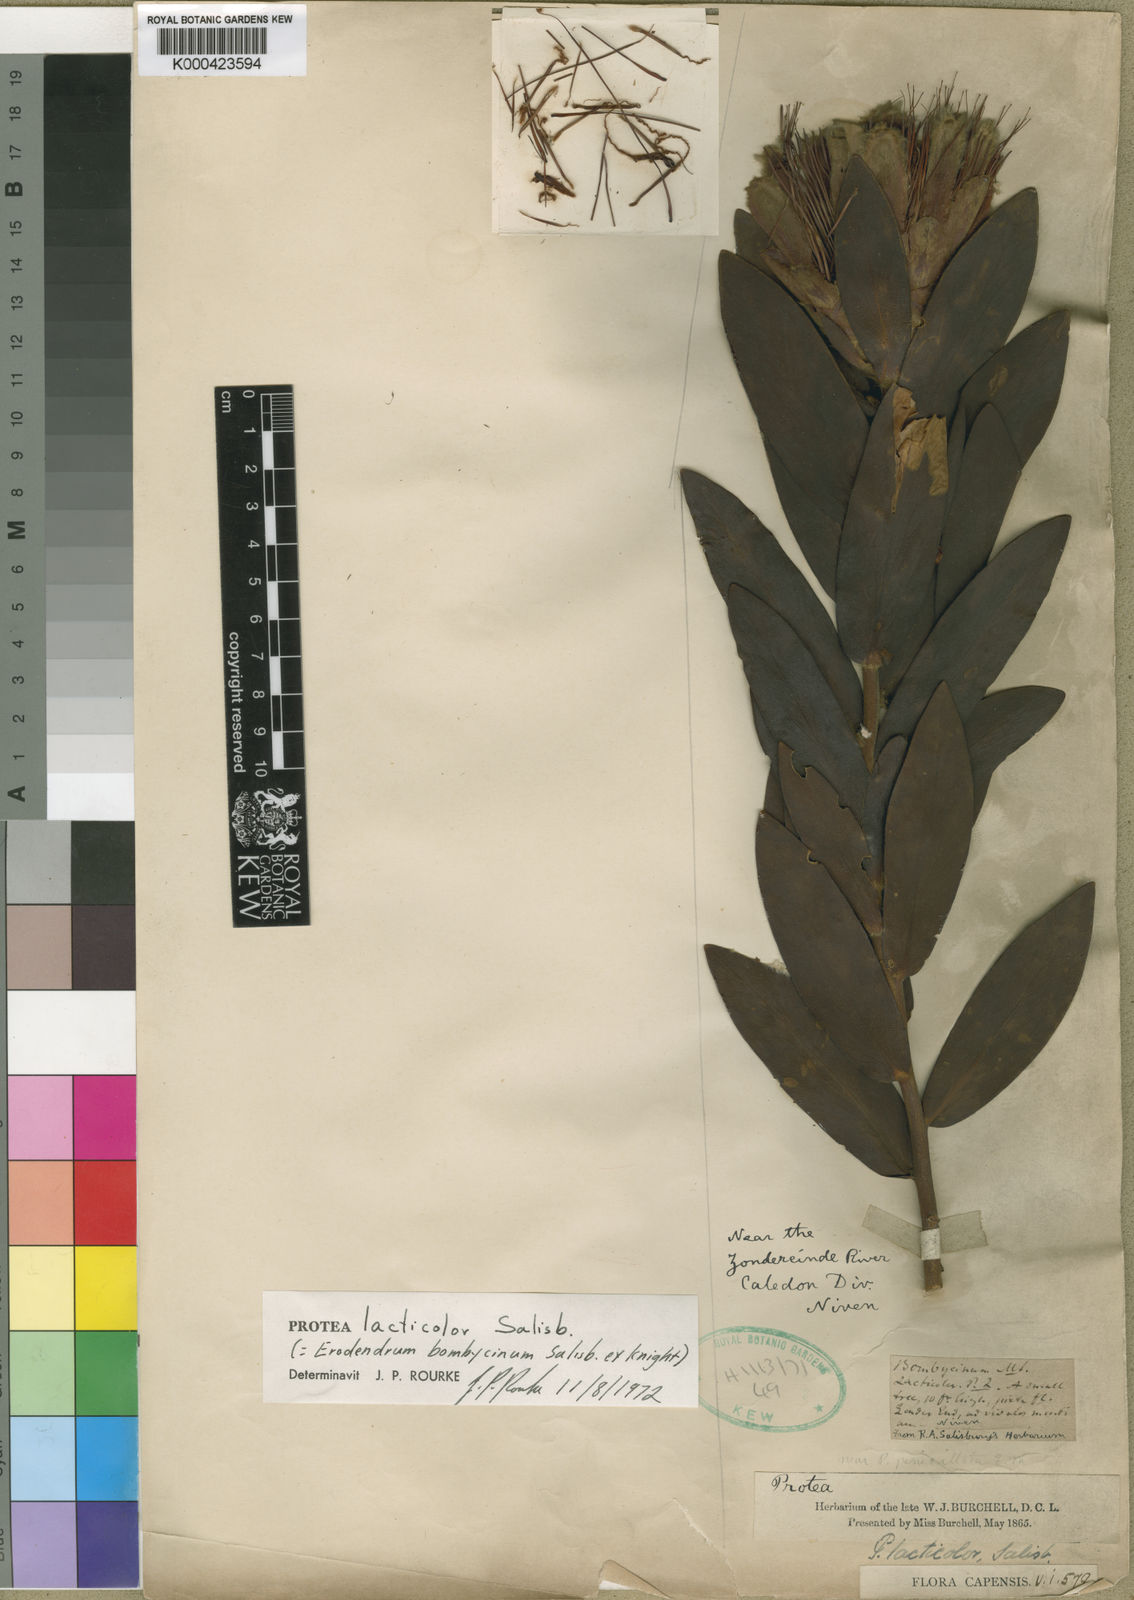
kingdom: Plantae
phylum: Tracheophyta
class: Magnoliopsida
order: Proteales
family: Proteaceae
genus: Protea
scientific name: Protea lacticolor
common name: Hottentot sugarbush
